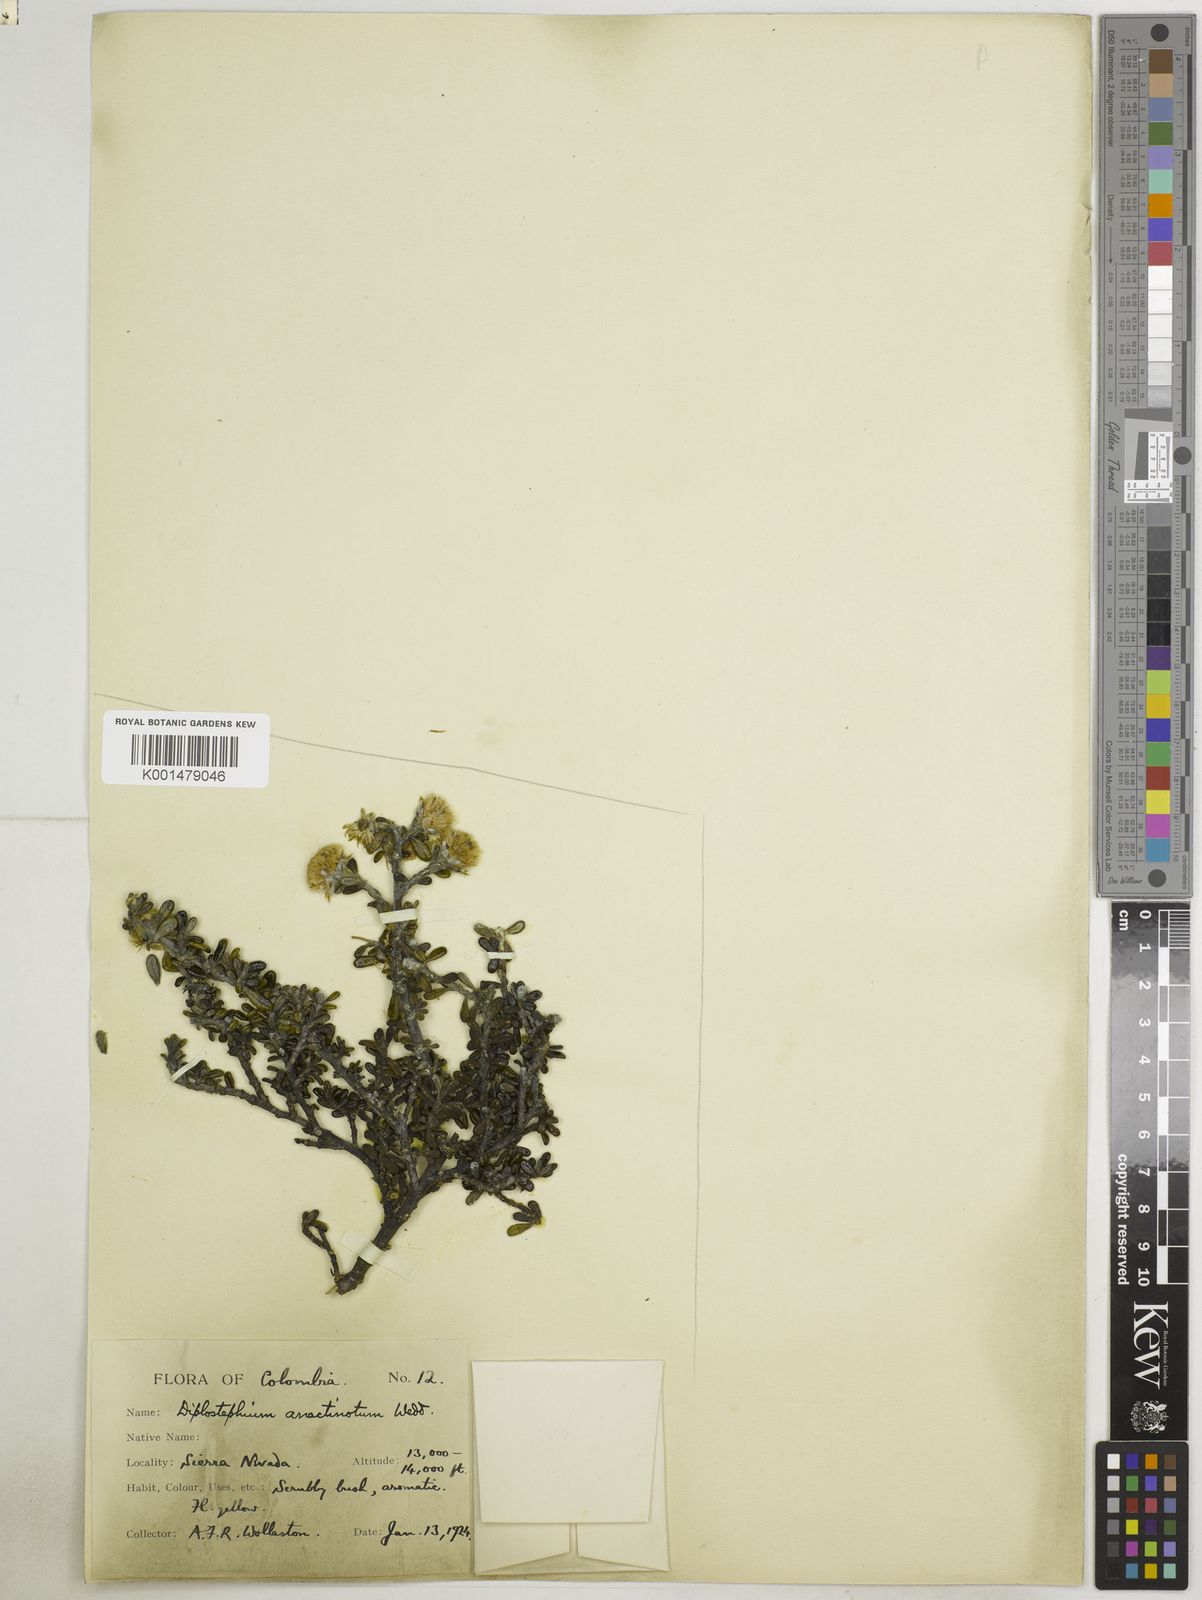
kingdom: Plantae
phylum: Tracheophyta
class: Magnoliopsida
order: Asterales
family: Asteraceae
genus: Linochilus
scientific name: Linochilus anactinotus
